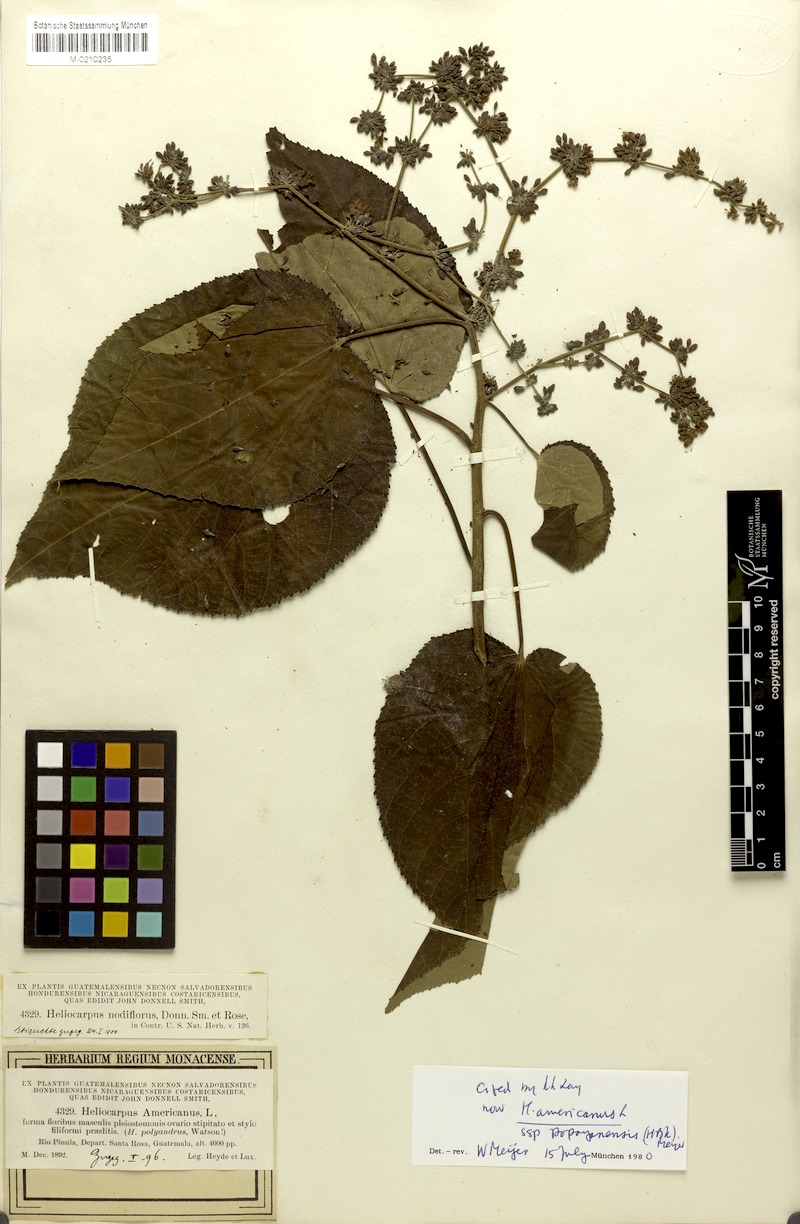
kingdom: Plantae
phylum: Tracheophyta
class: Magnoliopsida
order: Malvales
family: Malvaceae
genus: Heliocarpus
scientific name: Heliocarpus americanus
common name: White moho
